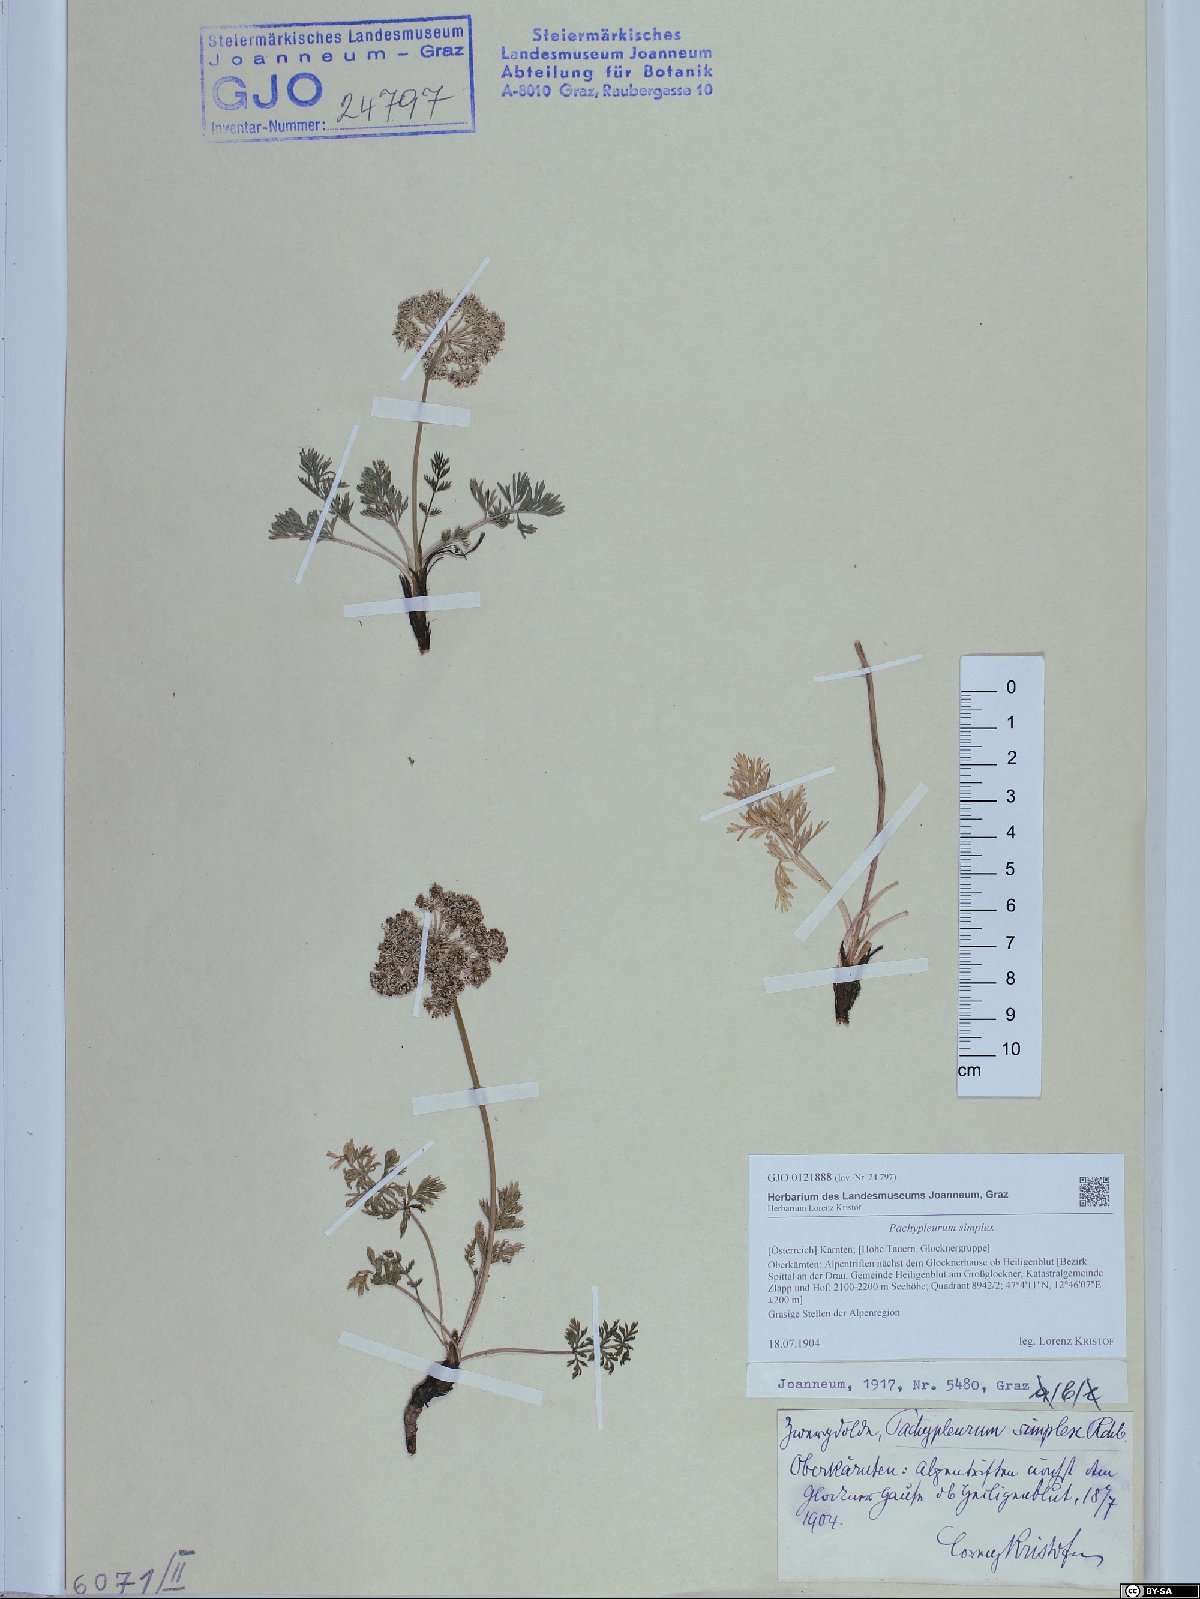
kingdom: Plantae
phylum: Tracheophyta
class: Magnoliopsida
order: Apiales
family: Apiaceae
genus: Pachypleurum
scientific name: Pachypleurum mutellinoides
